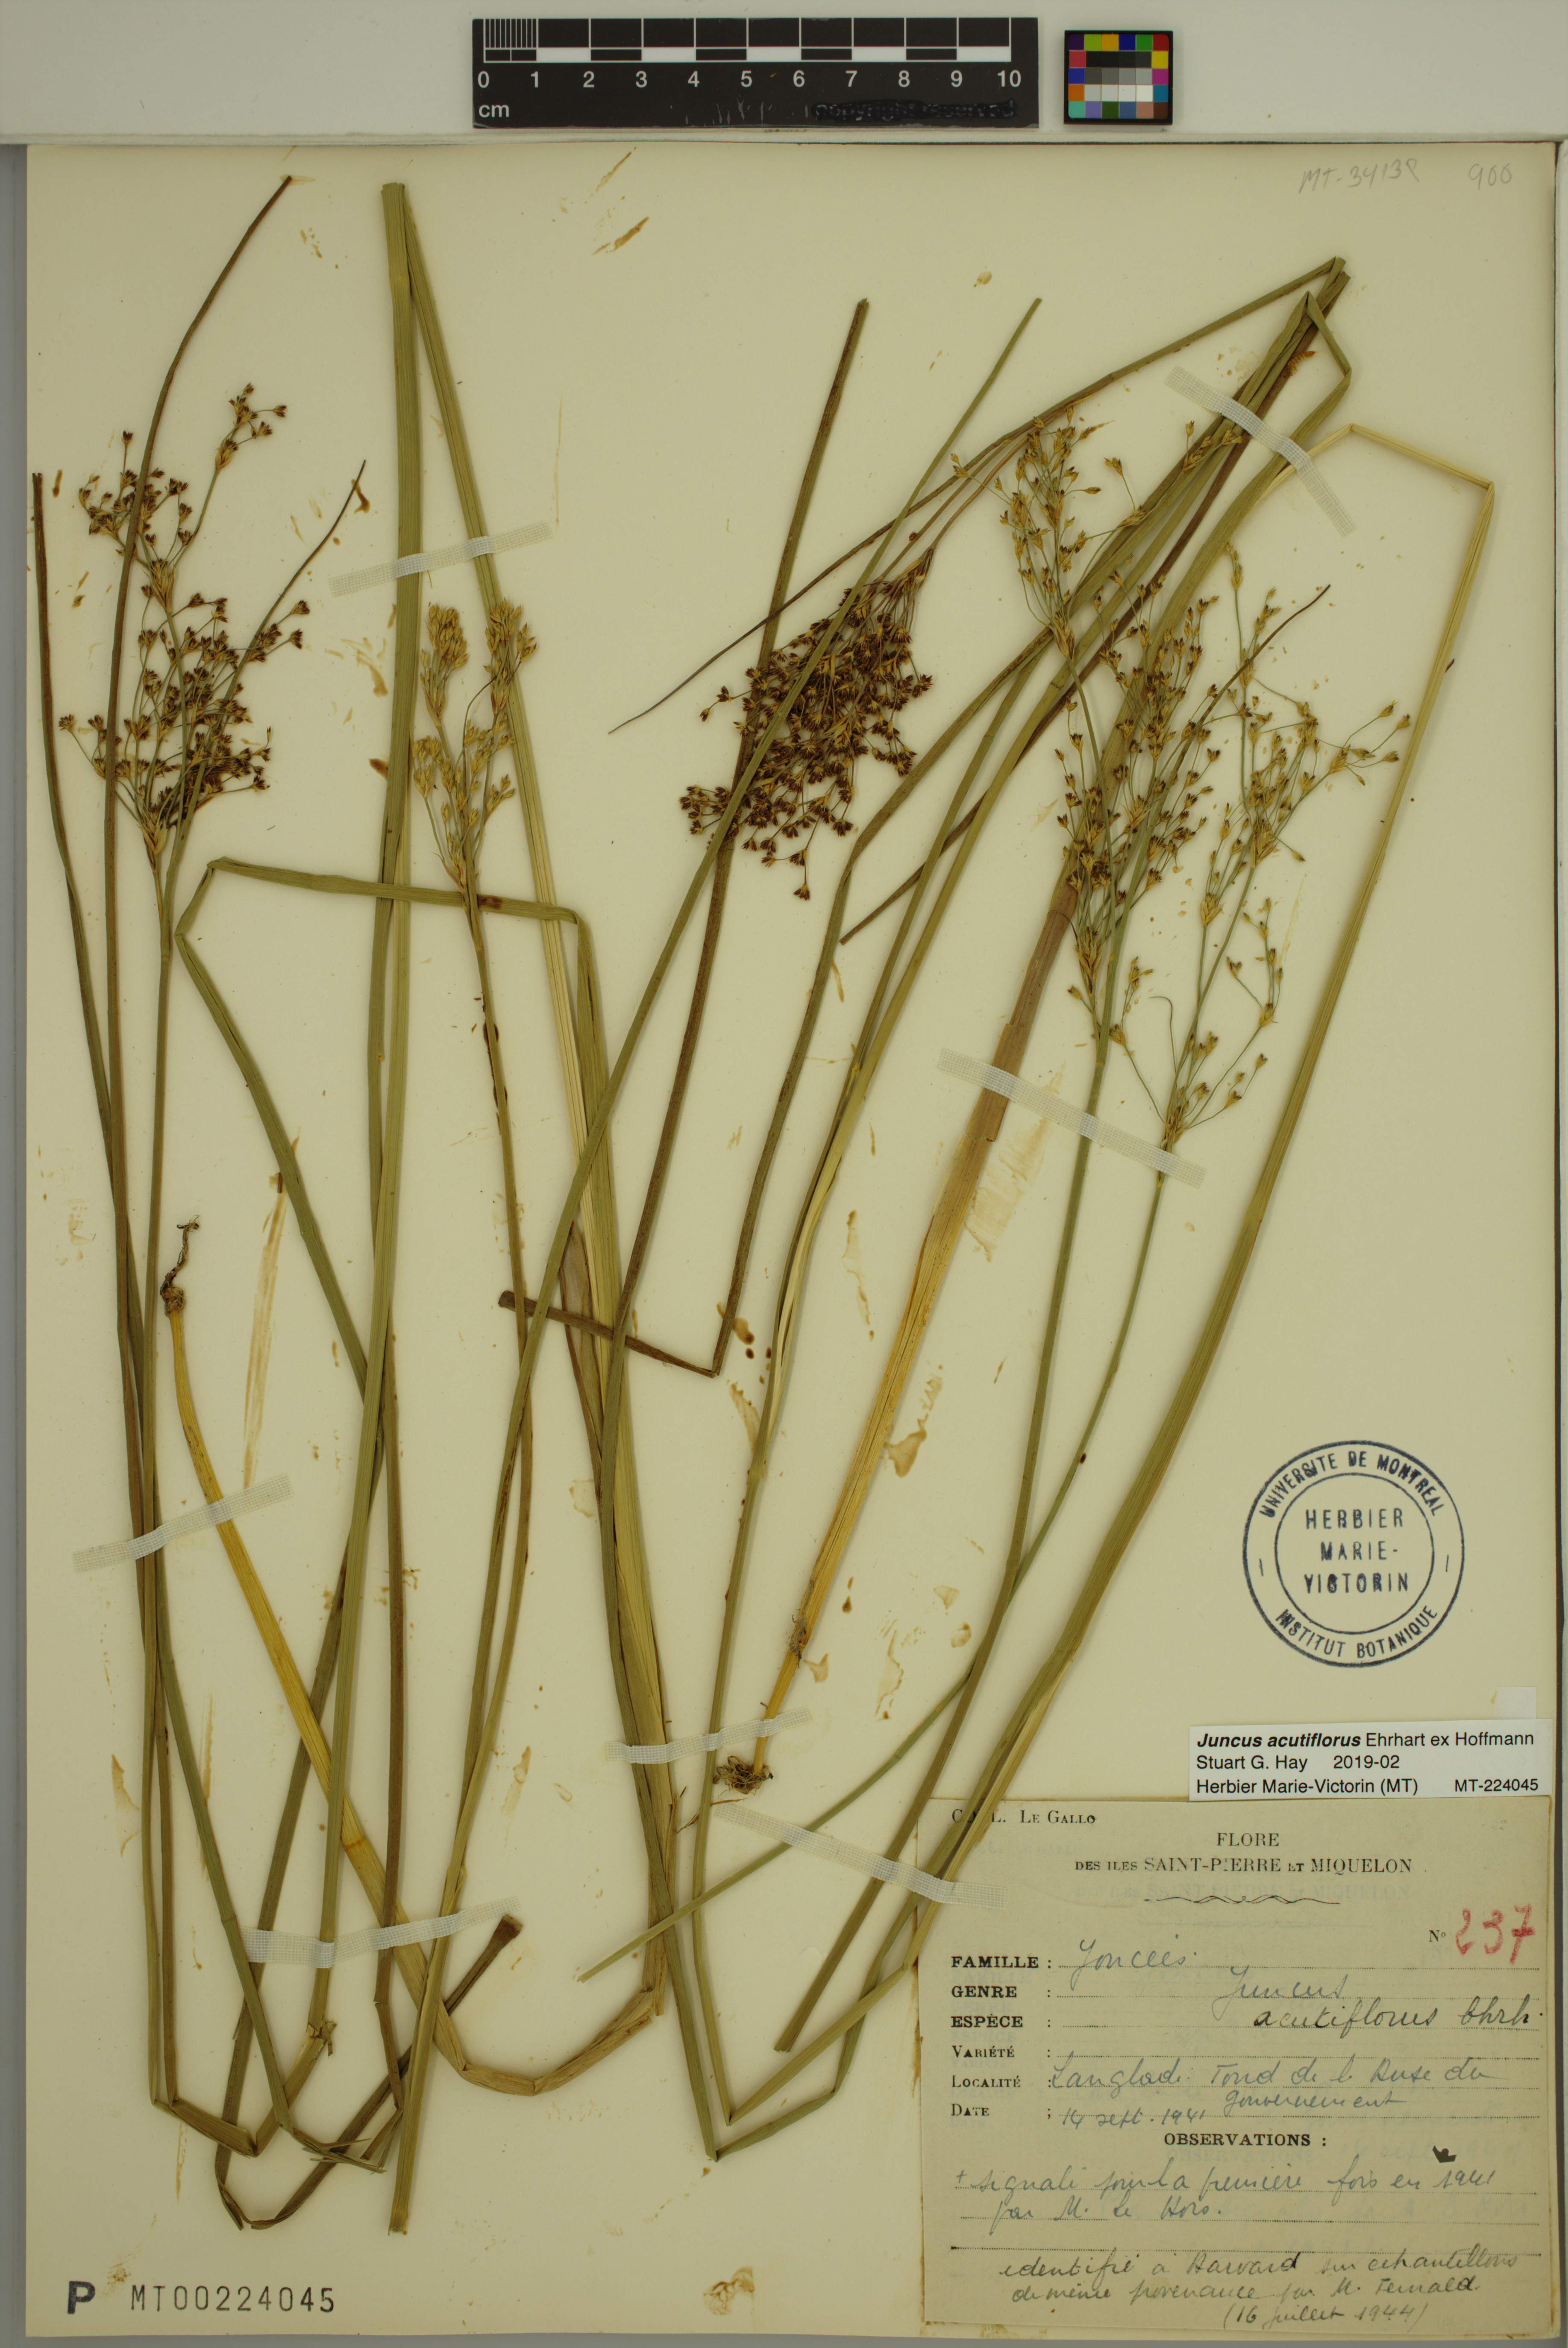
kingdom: Plantae
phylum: Tracheophyta
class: Liliopsida
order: Poales
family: Juncaceae
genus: Juncus
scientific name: Juncus acutiflorus
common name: Sharp-flowered rush
